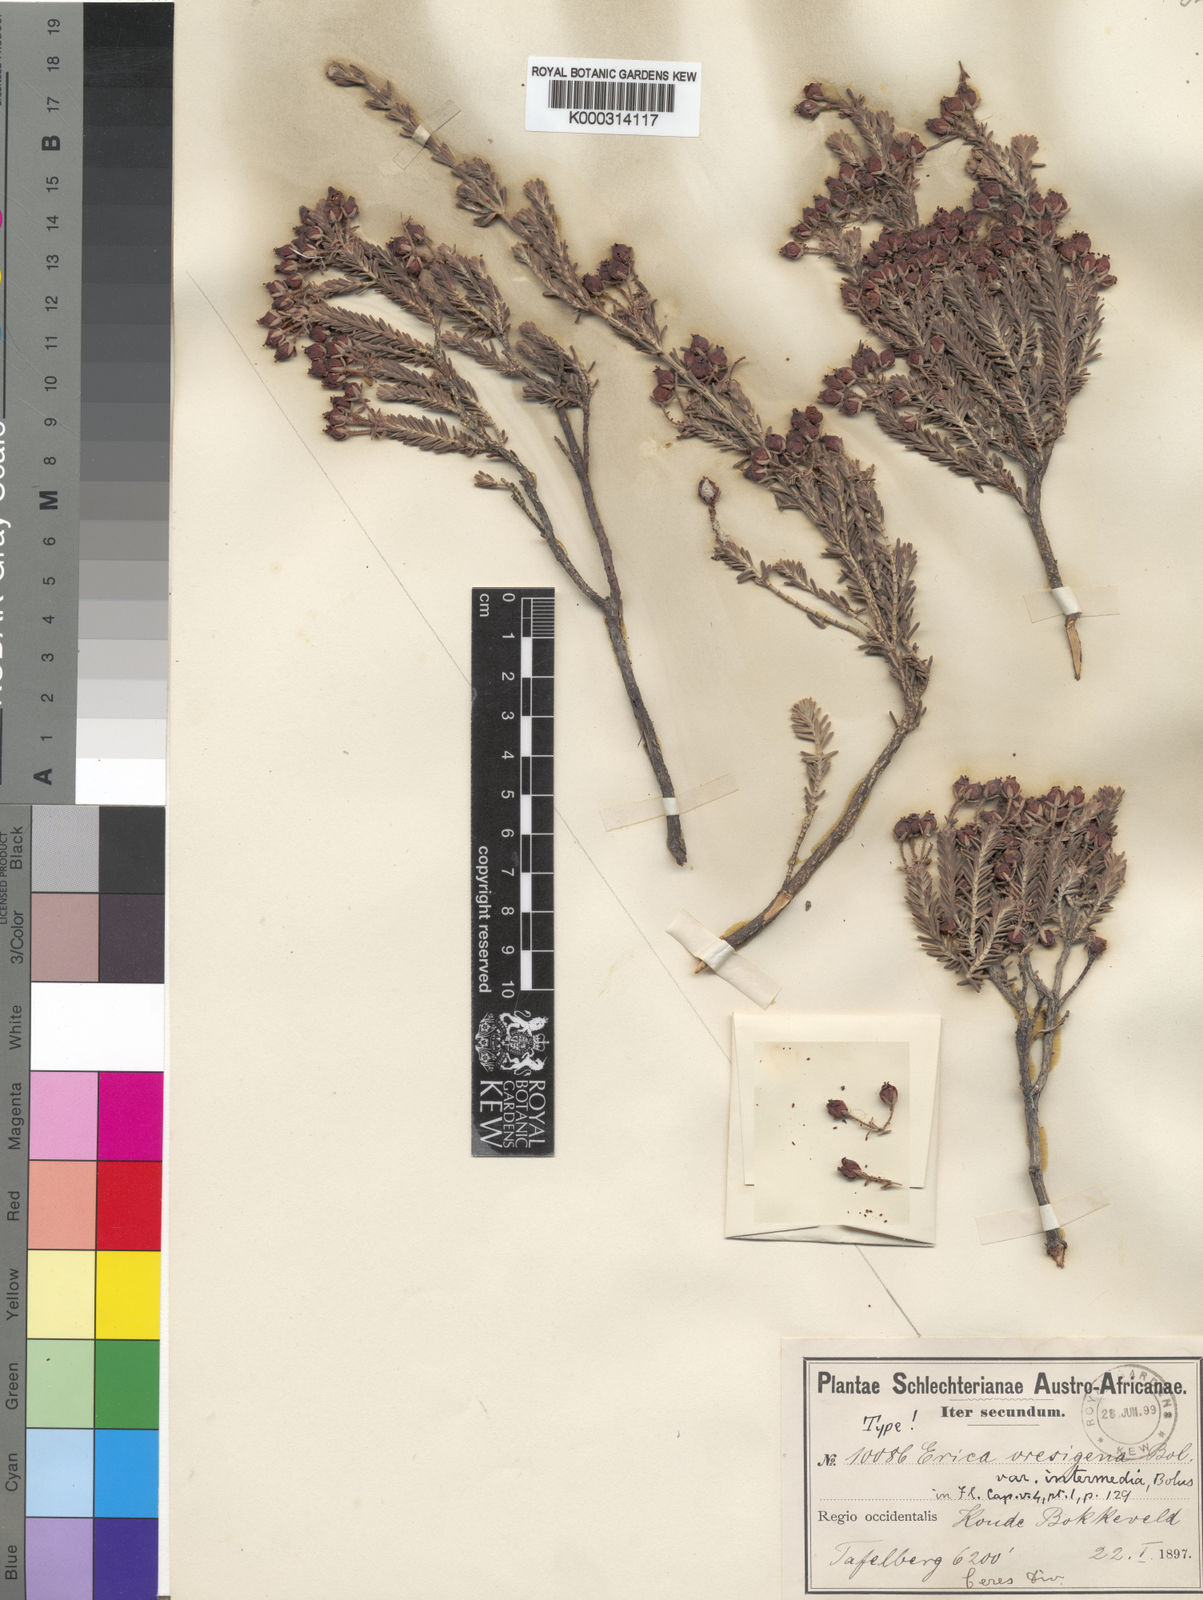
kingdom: Plantae
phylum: Tracheophyta
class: Magnoliopsida
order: Ericales
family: Ericaceae
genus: Erica
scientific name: Erica oresigena
